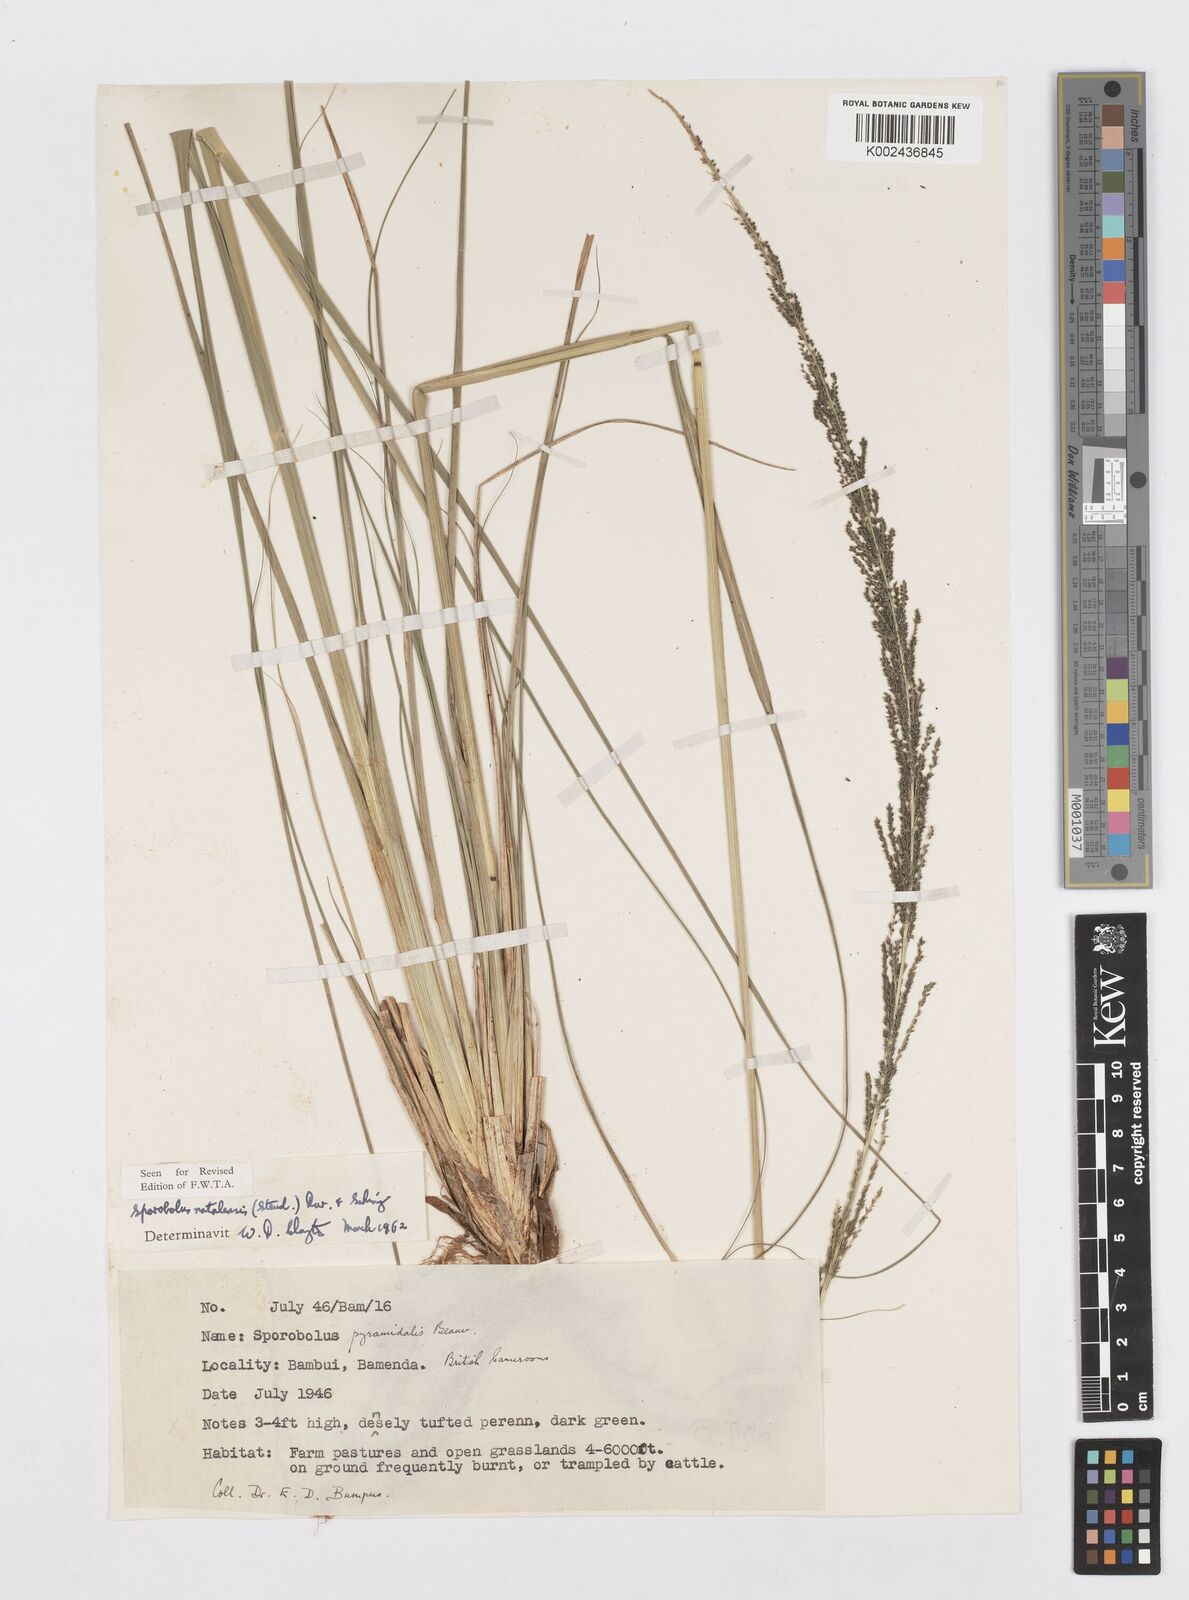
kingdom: Plantae
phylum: Tracheophyta
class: Liliopsida
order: Poales
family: Poaceae
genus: Sporobolus
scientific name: Sporobolus natalensis
